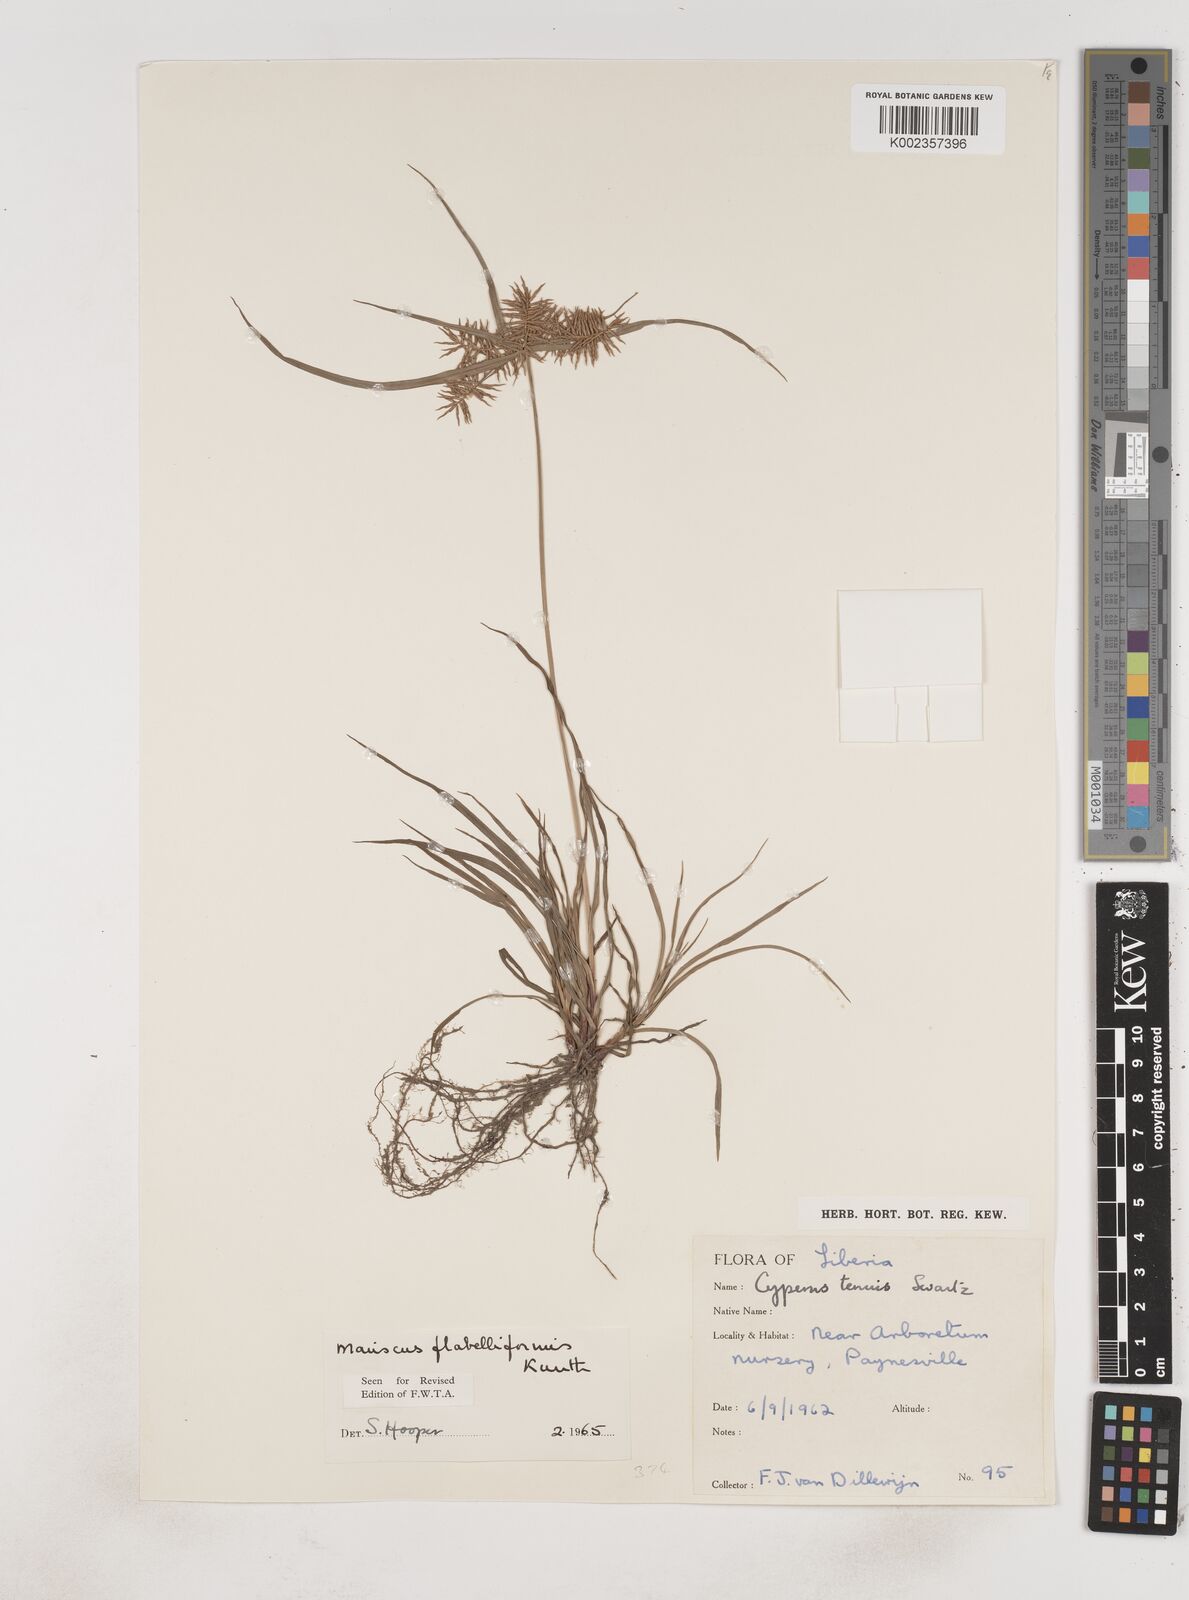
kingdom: Plantae
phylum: Tracheophyta
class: Liliopsida
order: Poales
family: Cyperaceae
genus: Cyperus
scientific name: Cyperus tenuis
